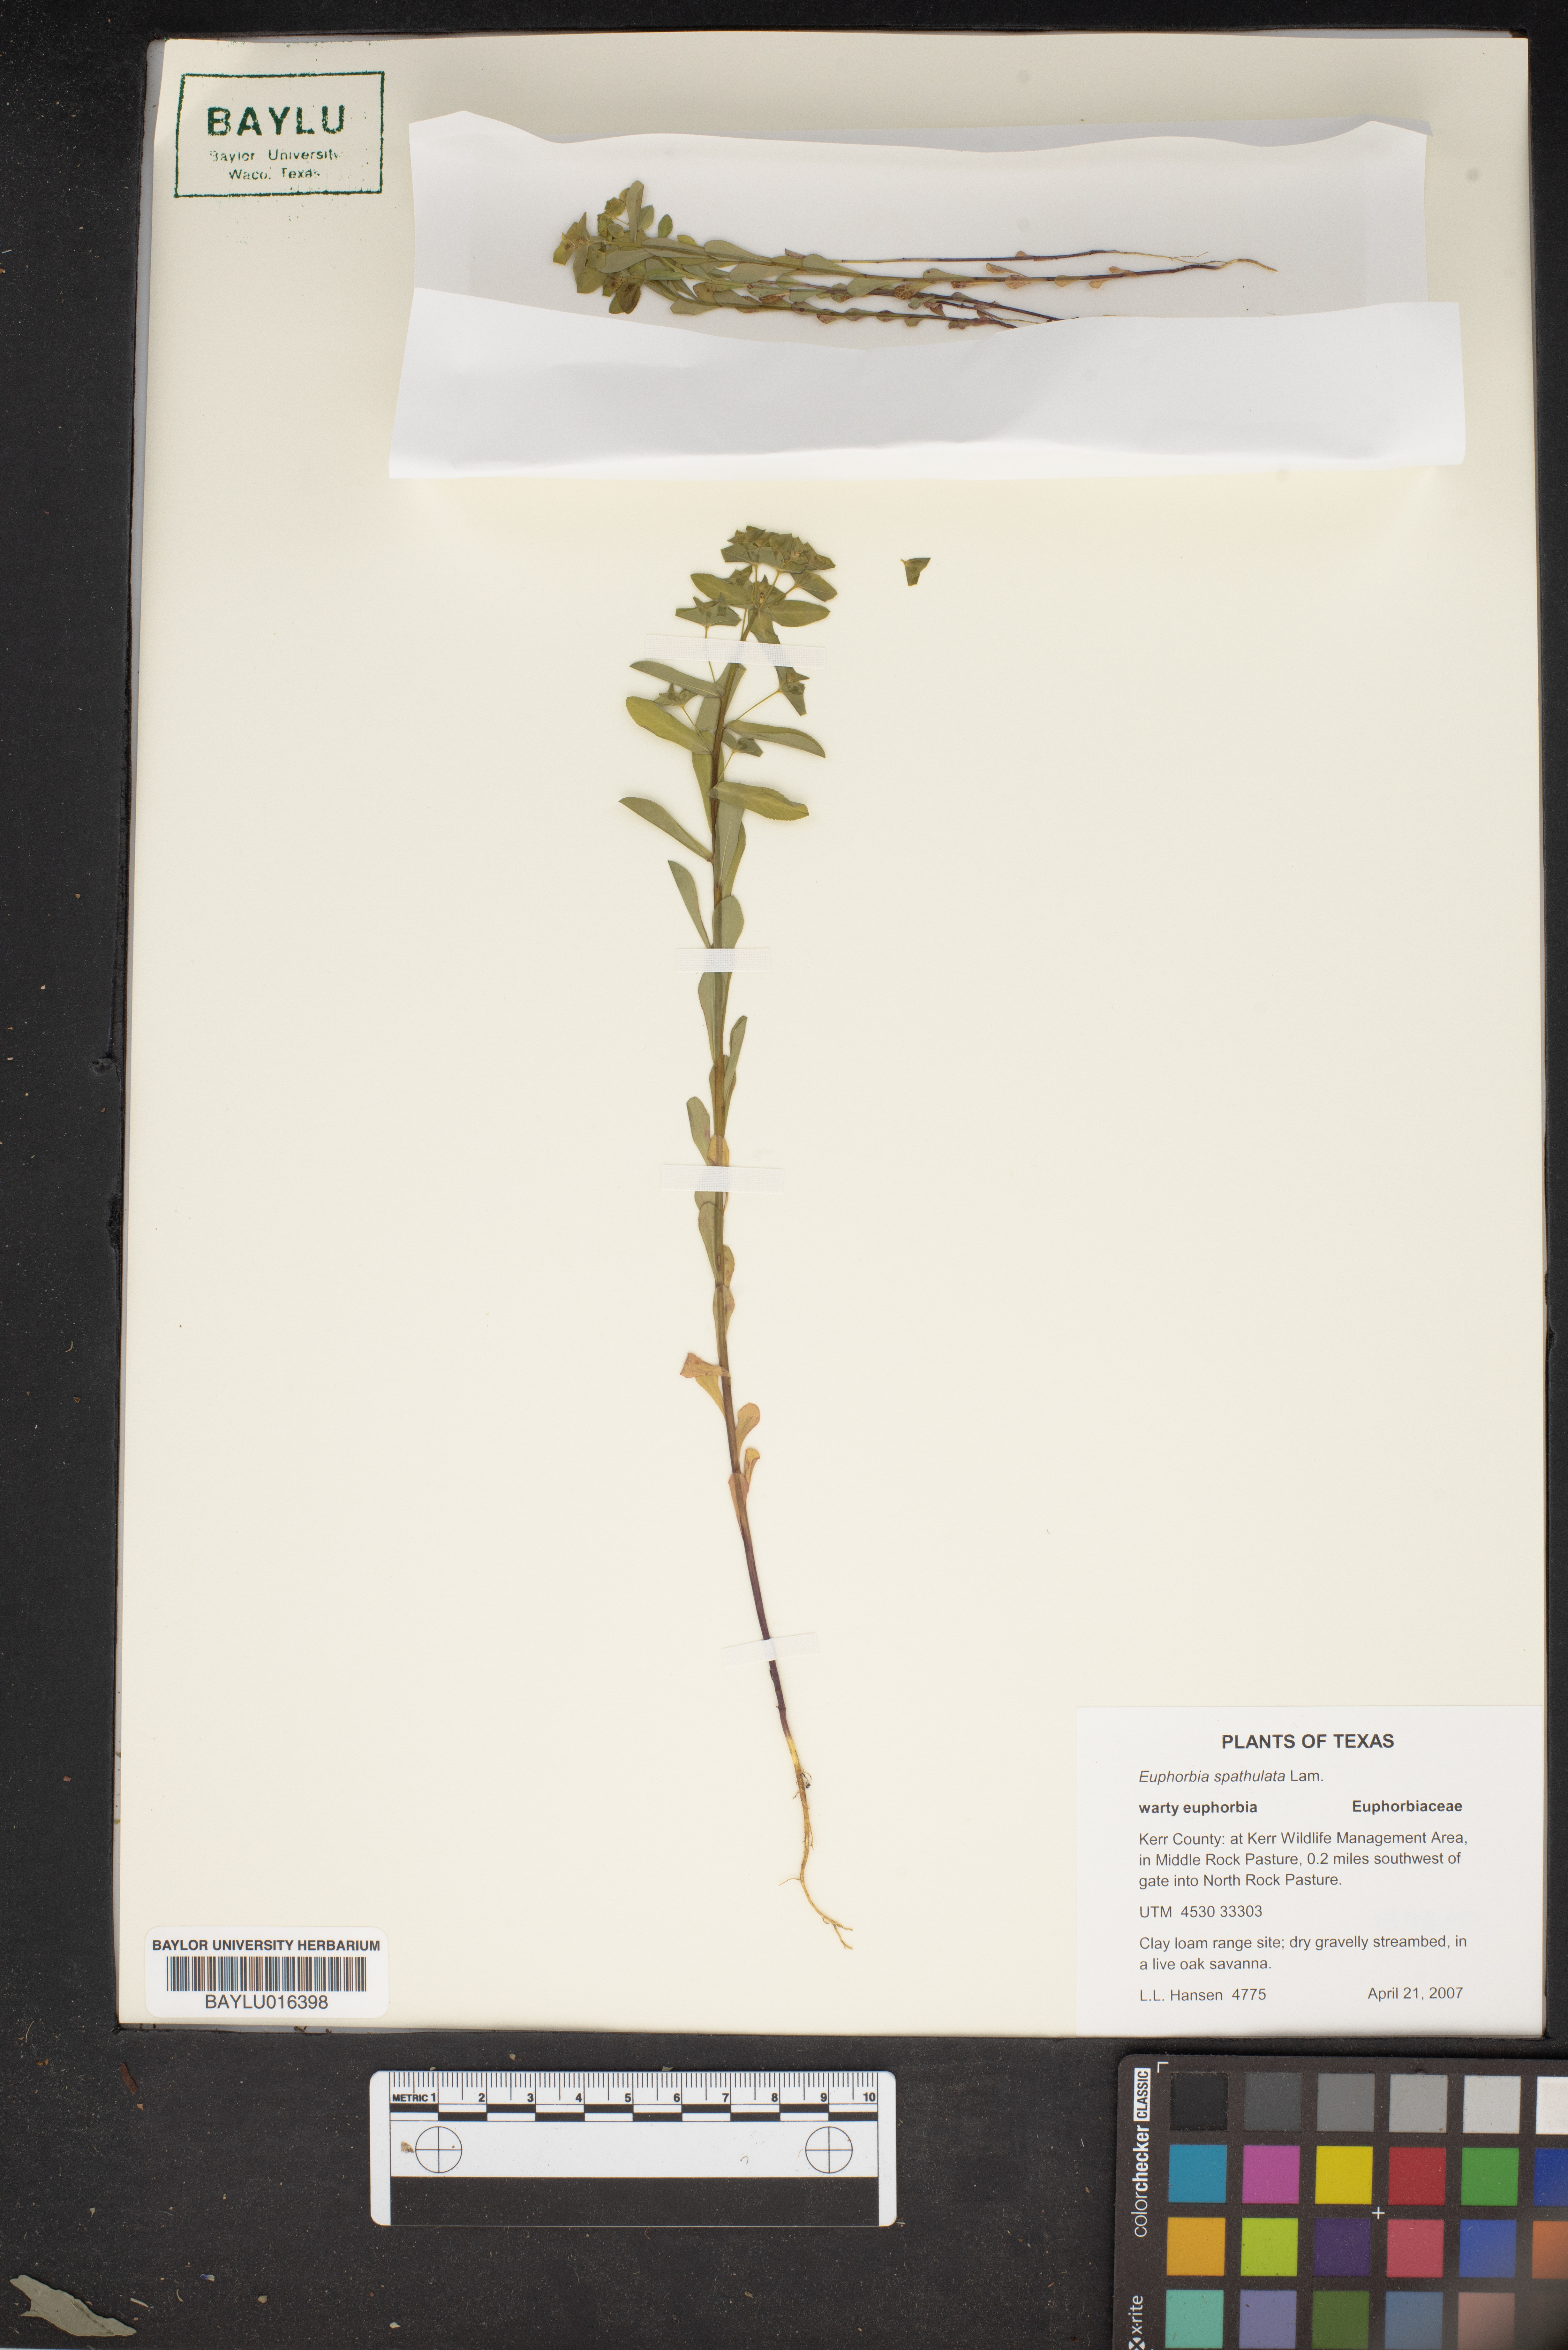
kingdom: Plantae
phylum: Tracheophyta
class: Magnoliopsida
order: Malpighiales
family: Euphorbiaceae
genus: Euphorbia
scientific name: Euphorbia spathulata
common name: Blunt spurge
